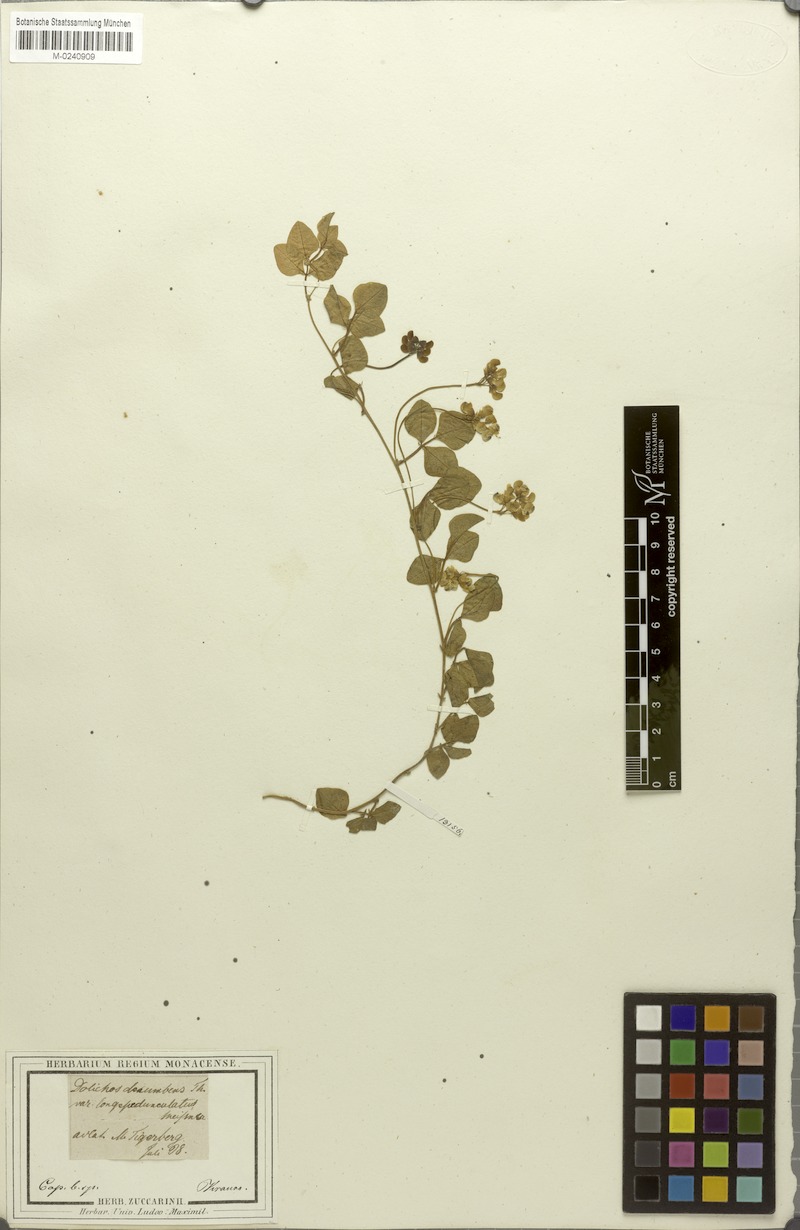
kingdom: Plantae
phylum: Tracheophyta
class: Magnoliopsida
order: Fabales
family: Fabaceae
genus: Dolichos
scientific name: Dolichos decumbens
